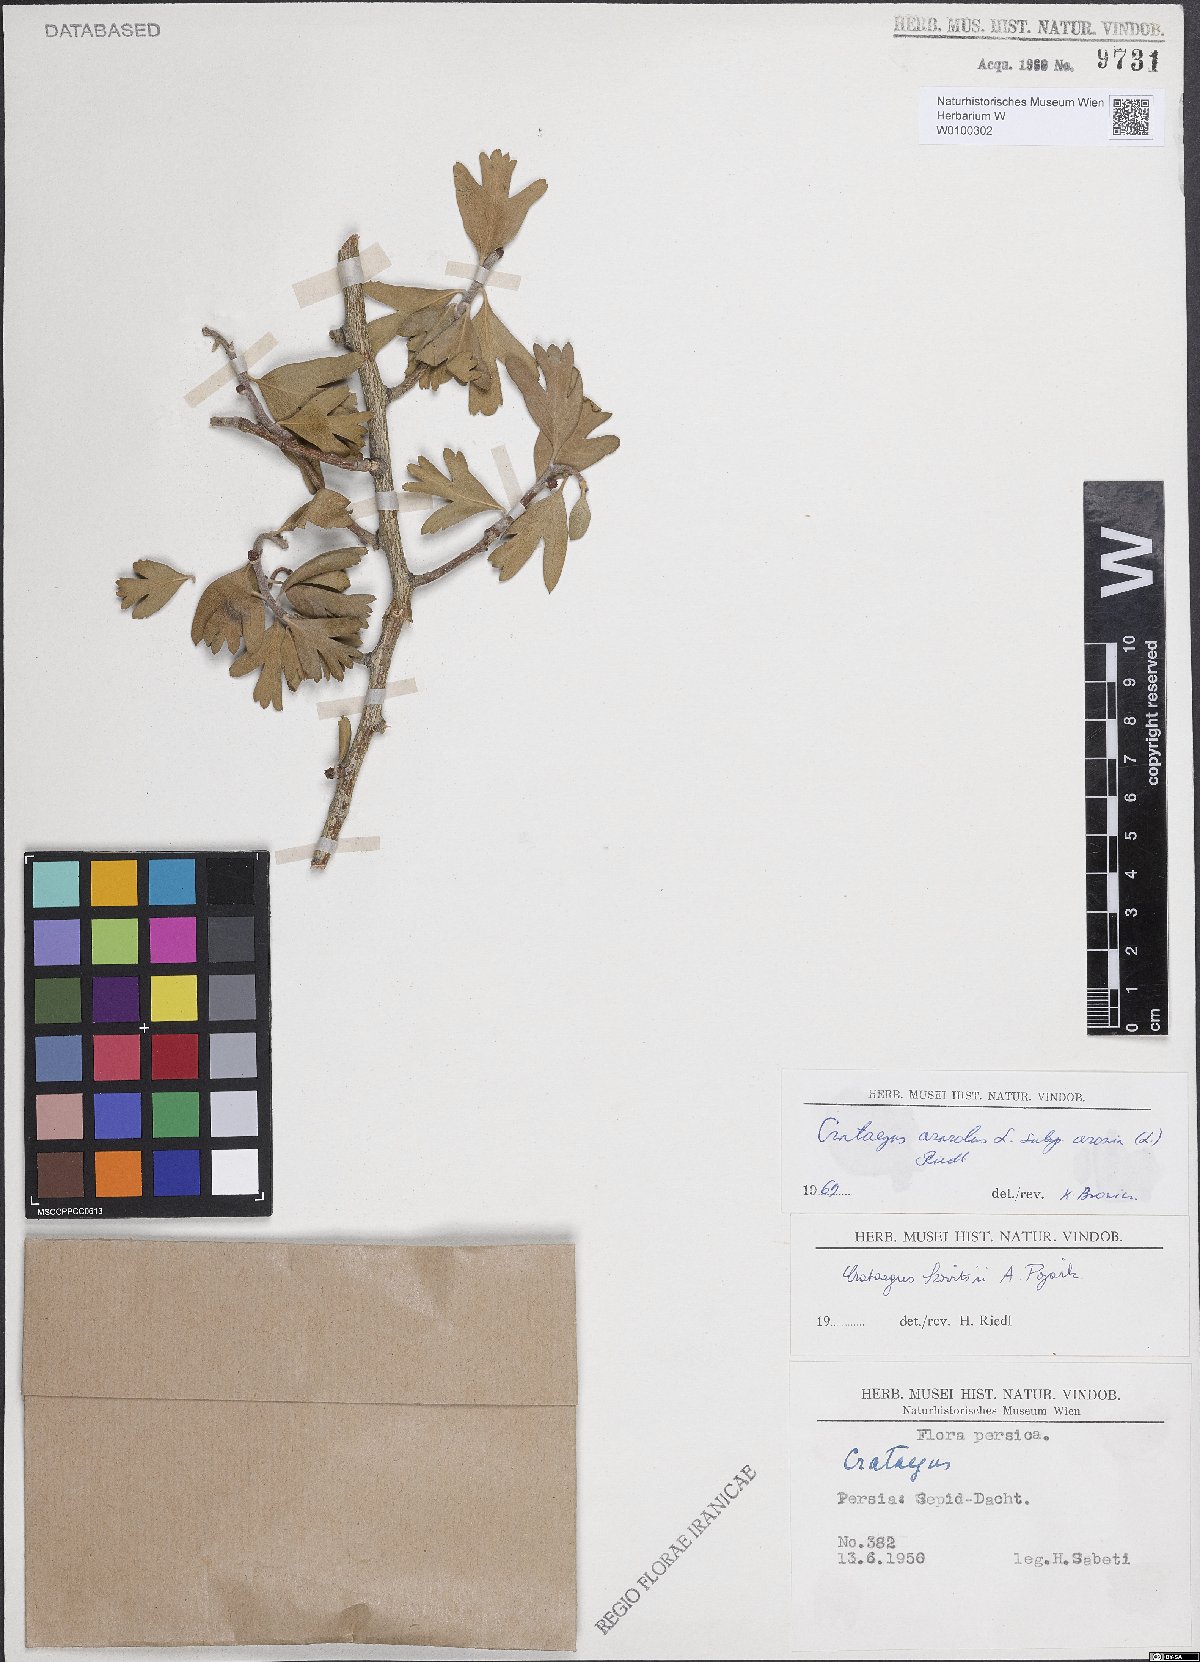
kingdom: Plantae
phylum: Tracheophyta
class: Magnoliopsida
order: Rosales
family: Rosaceae
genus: Crataegus
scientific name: Crataegus azarolus
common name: Azarole
